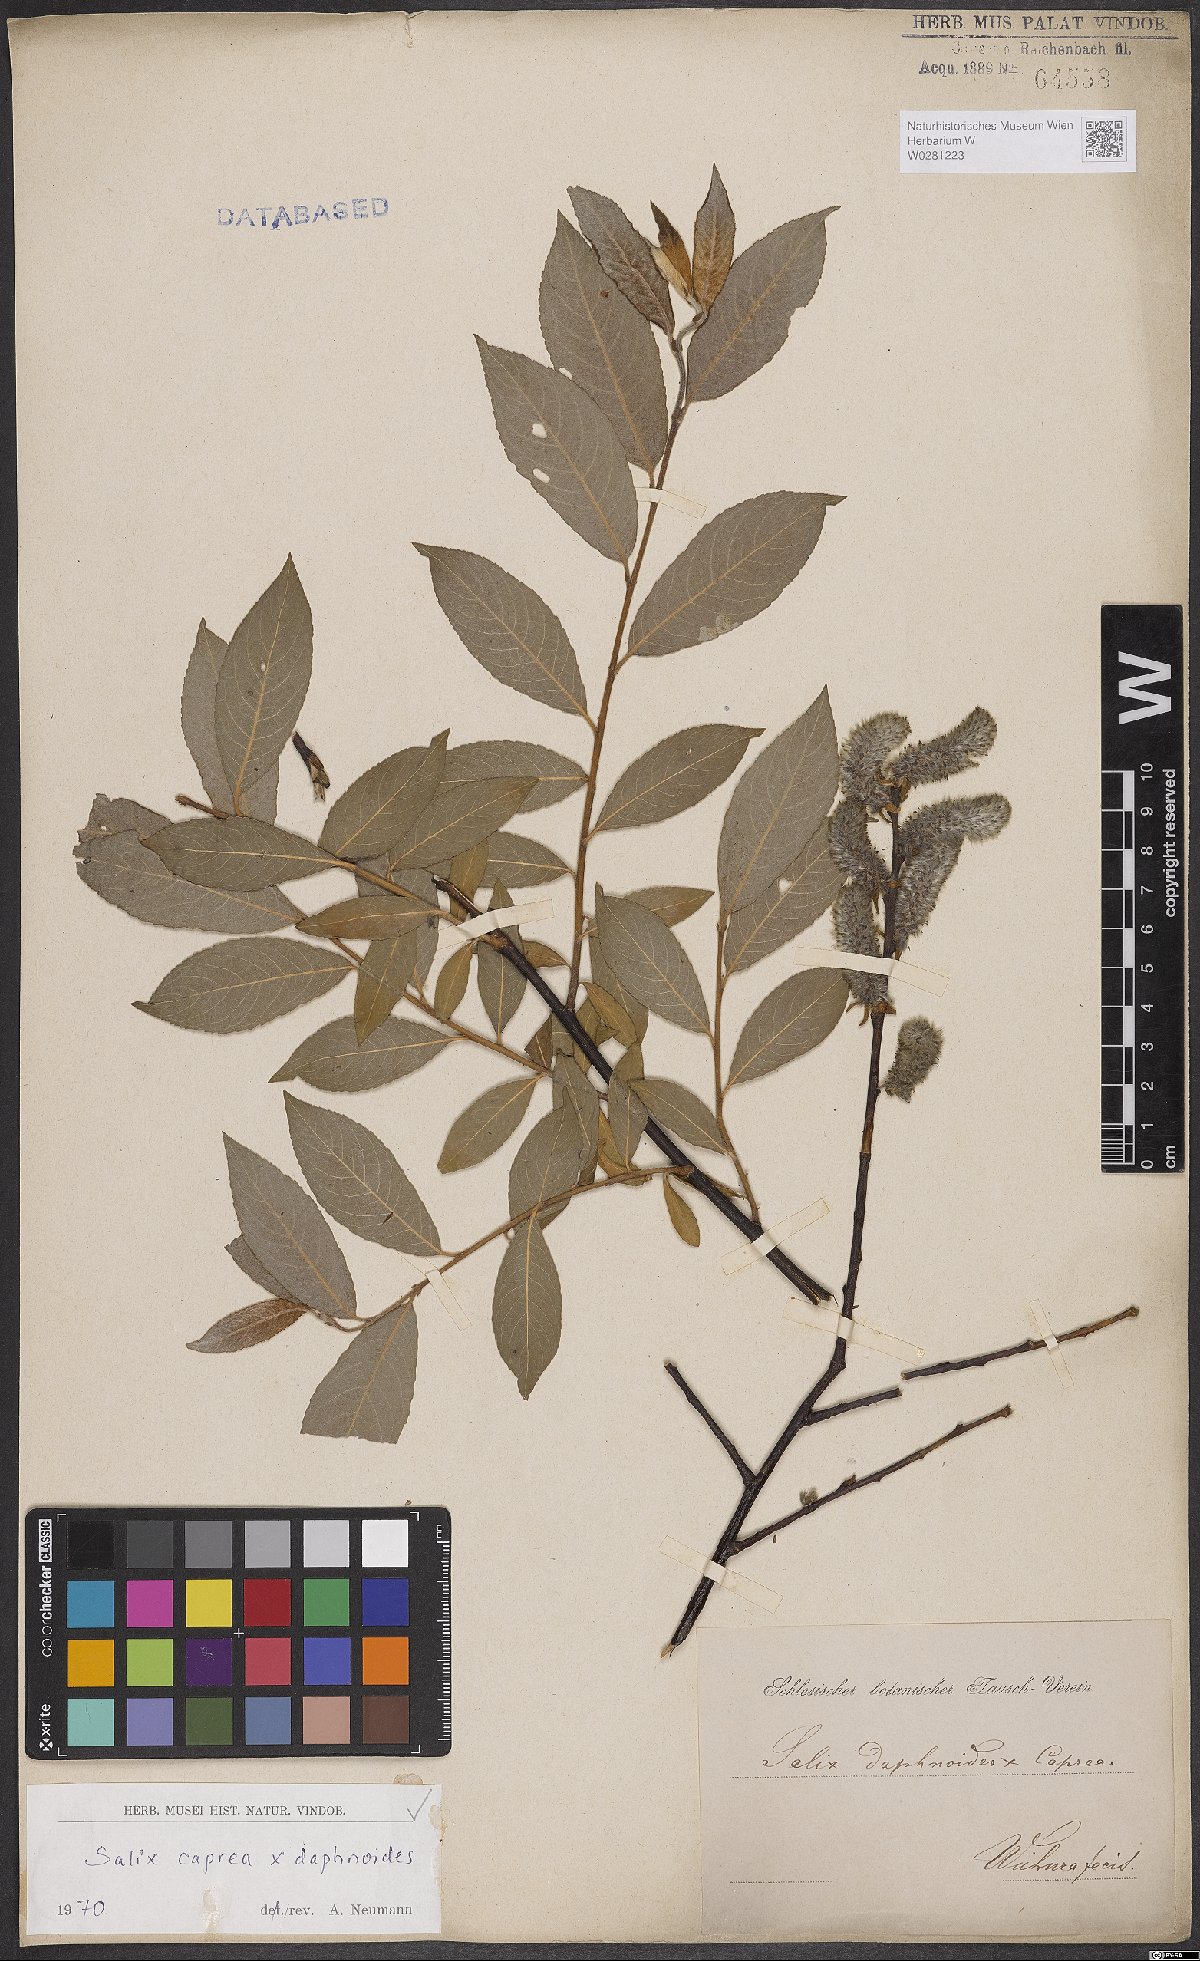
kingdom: Plantae
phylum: Tracheophyta
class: Magnoliopsida
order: Malpighiales
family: Salicaceae
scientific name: Salicaceae
